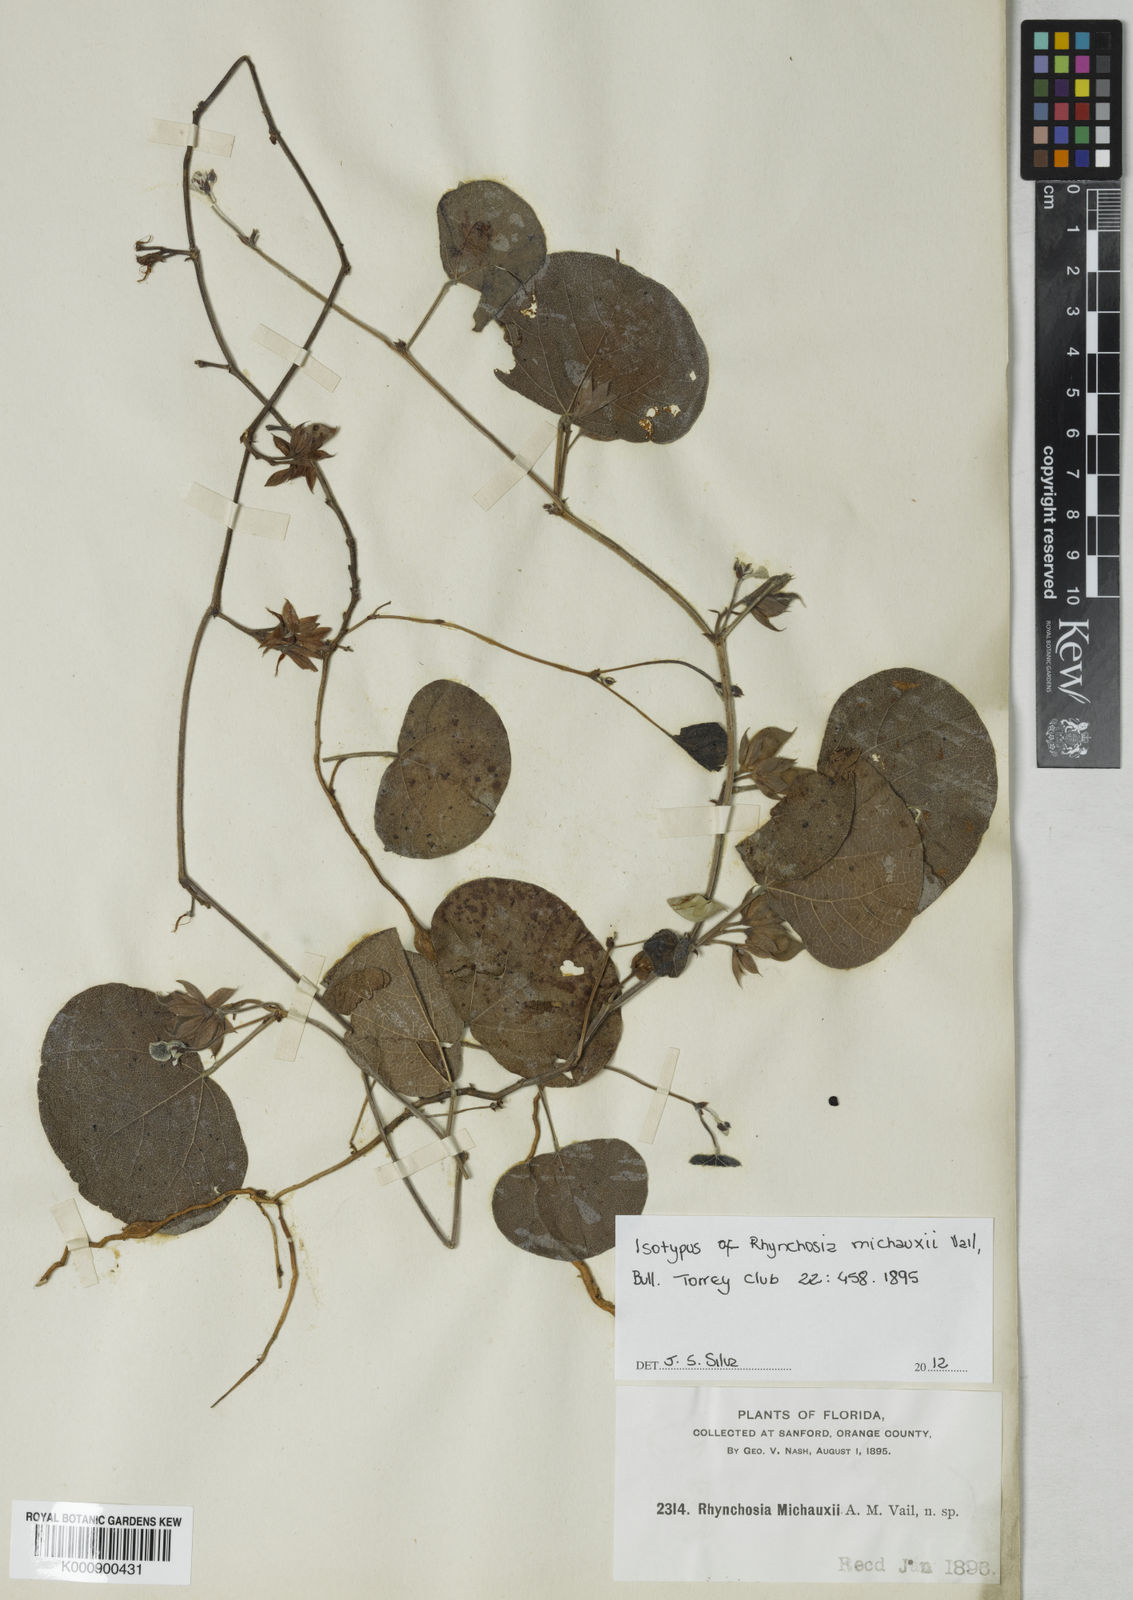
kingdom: Plantae
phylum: Tracheophyta
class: Magnoliopsida
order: Fabales
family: Fabaceae
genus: Rhynchosia
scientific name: Rhynchosia michauxii
